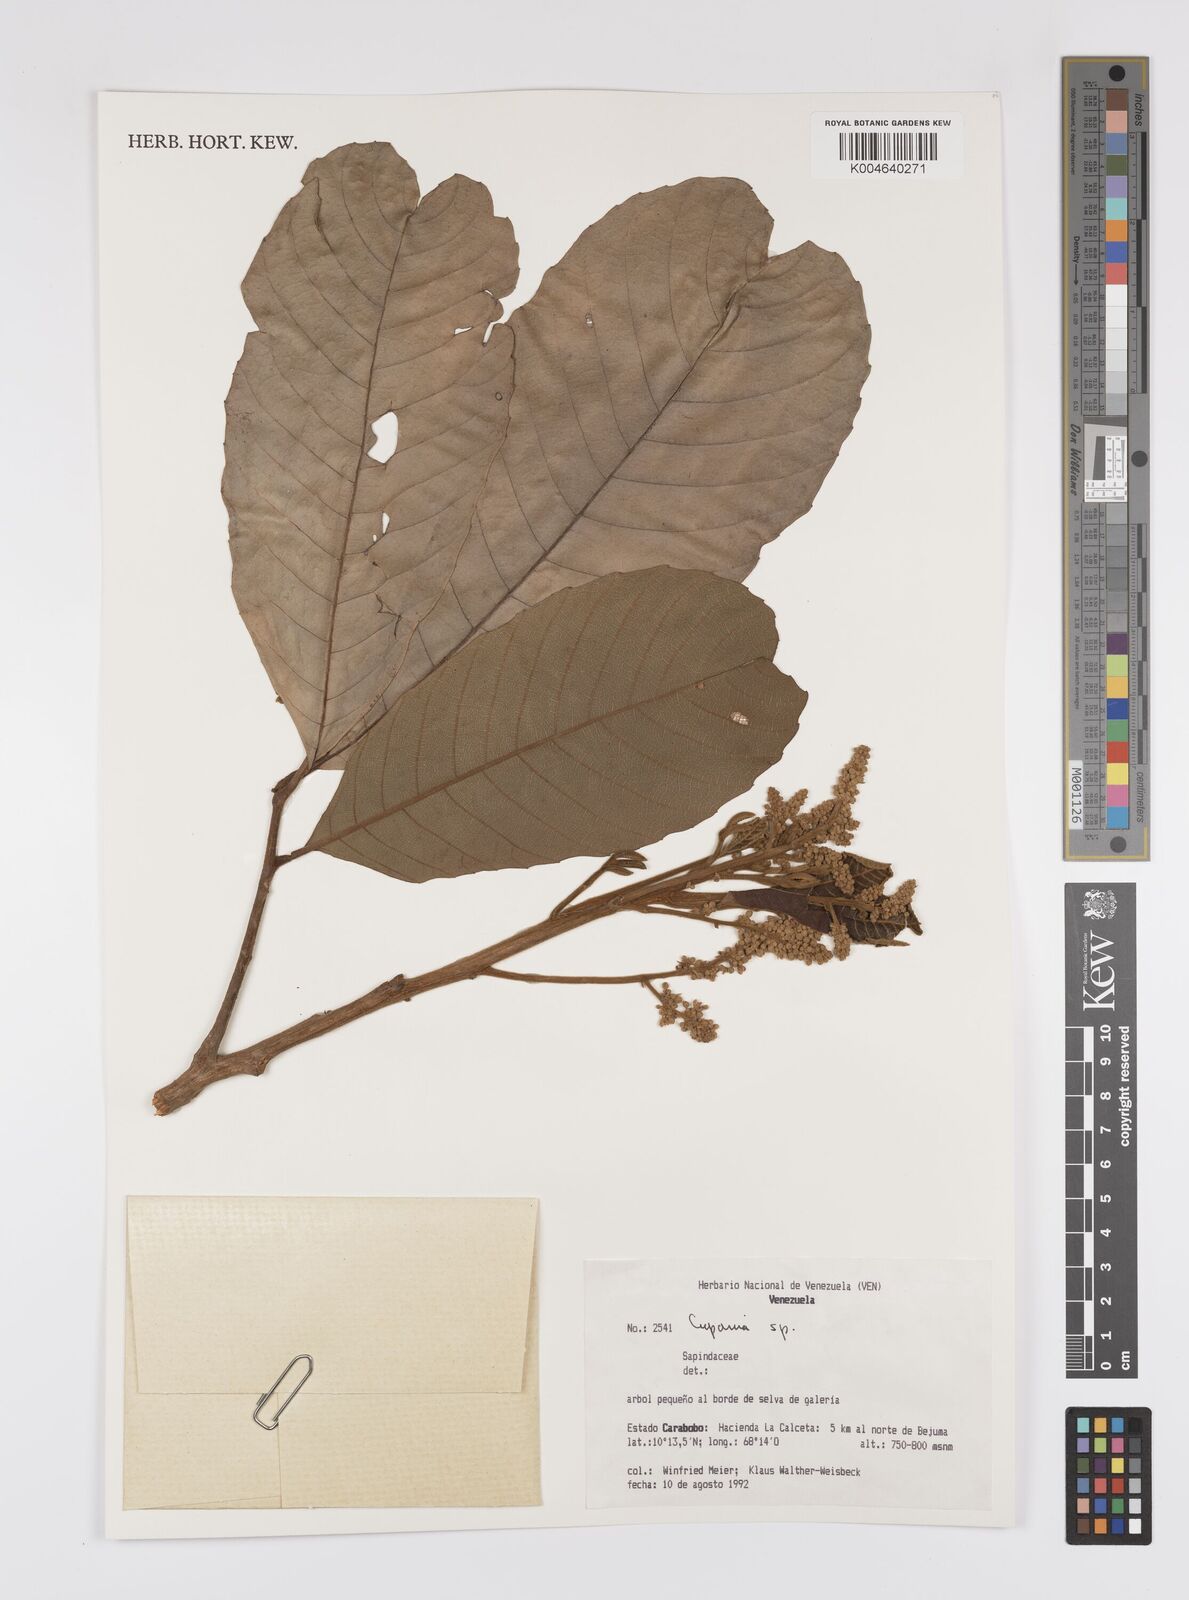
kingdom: Plantae
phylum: Tracheophyta
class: Magnoliopsida
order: Sapindales
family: Sapindaceae
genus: Cupania
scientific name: Cupania
